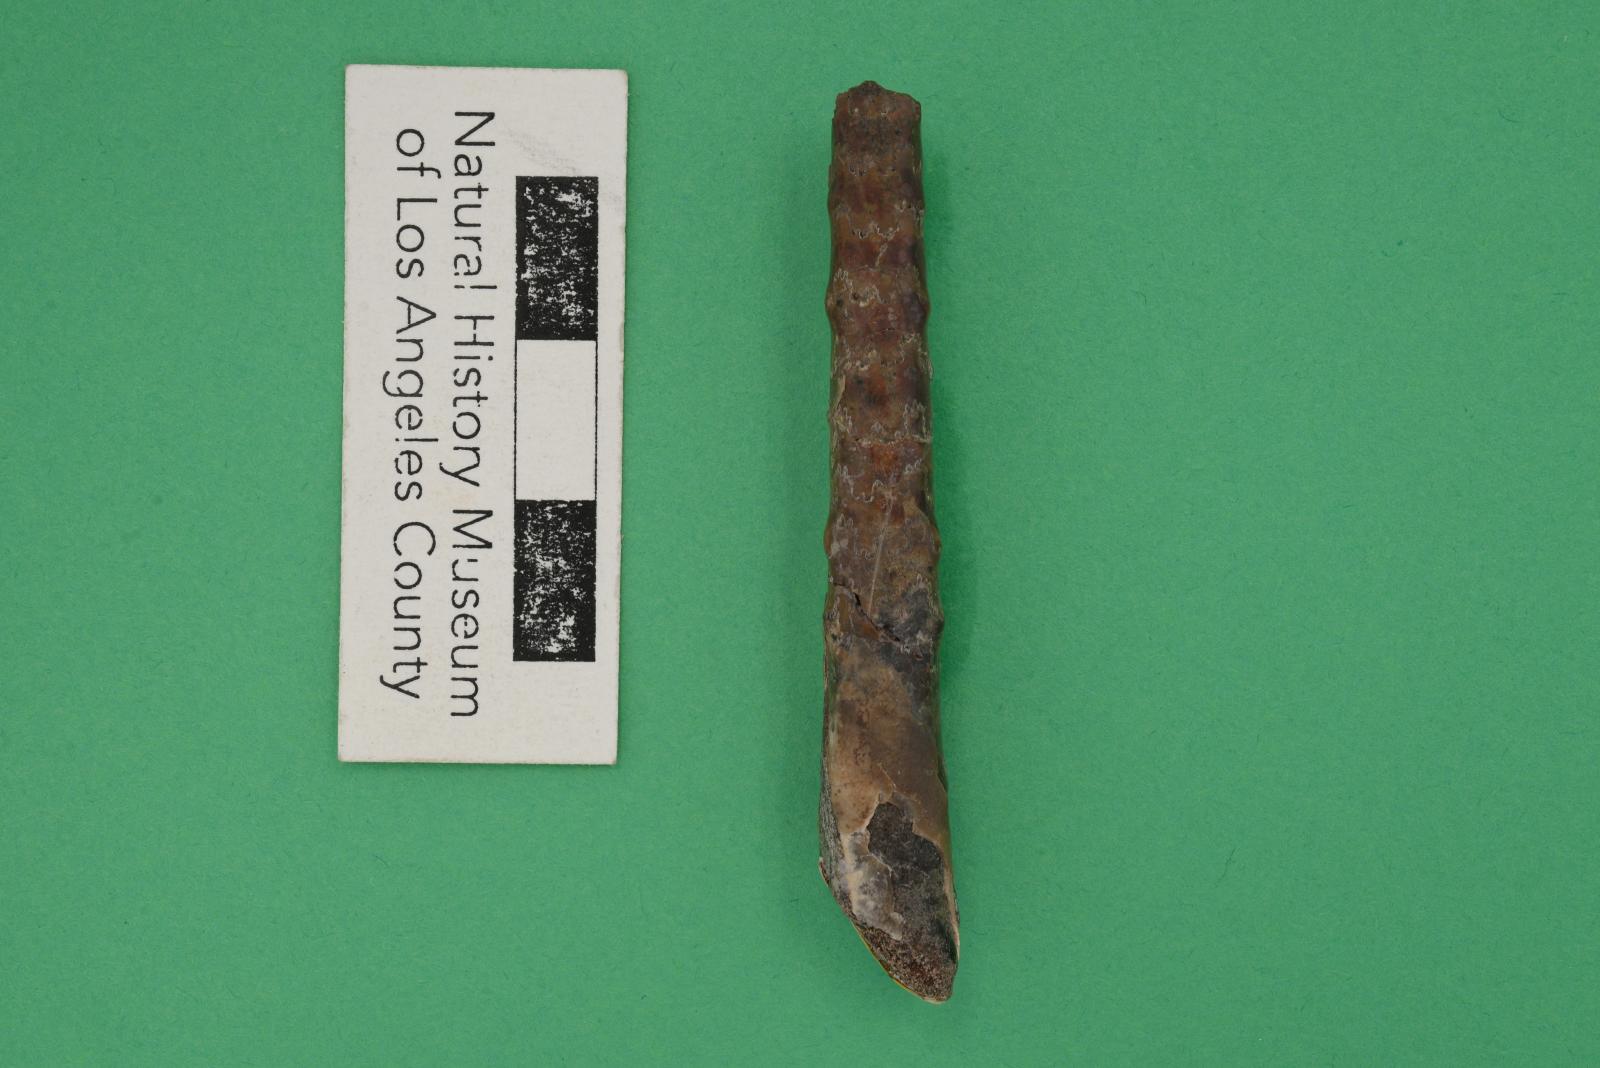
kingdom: Animalia
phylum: Mollusca
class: Cephalopoda
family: Baculitidae
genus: Baculites
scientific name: Baculites boulei
